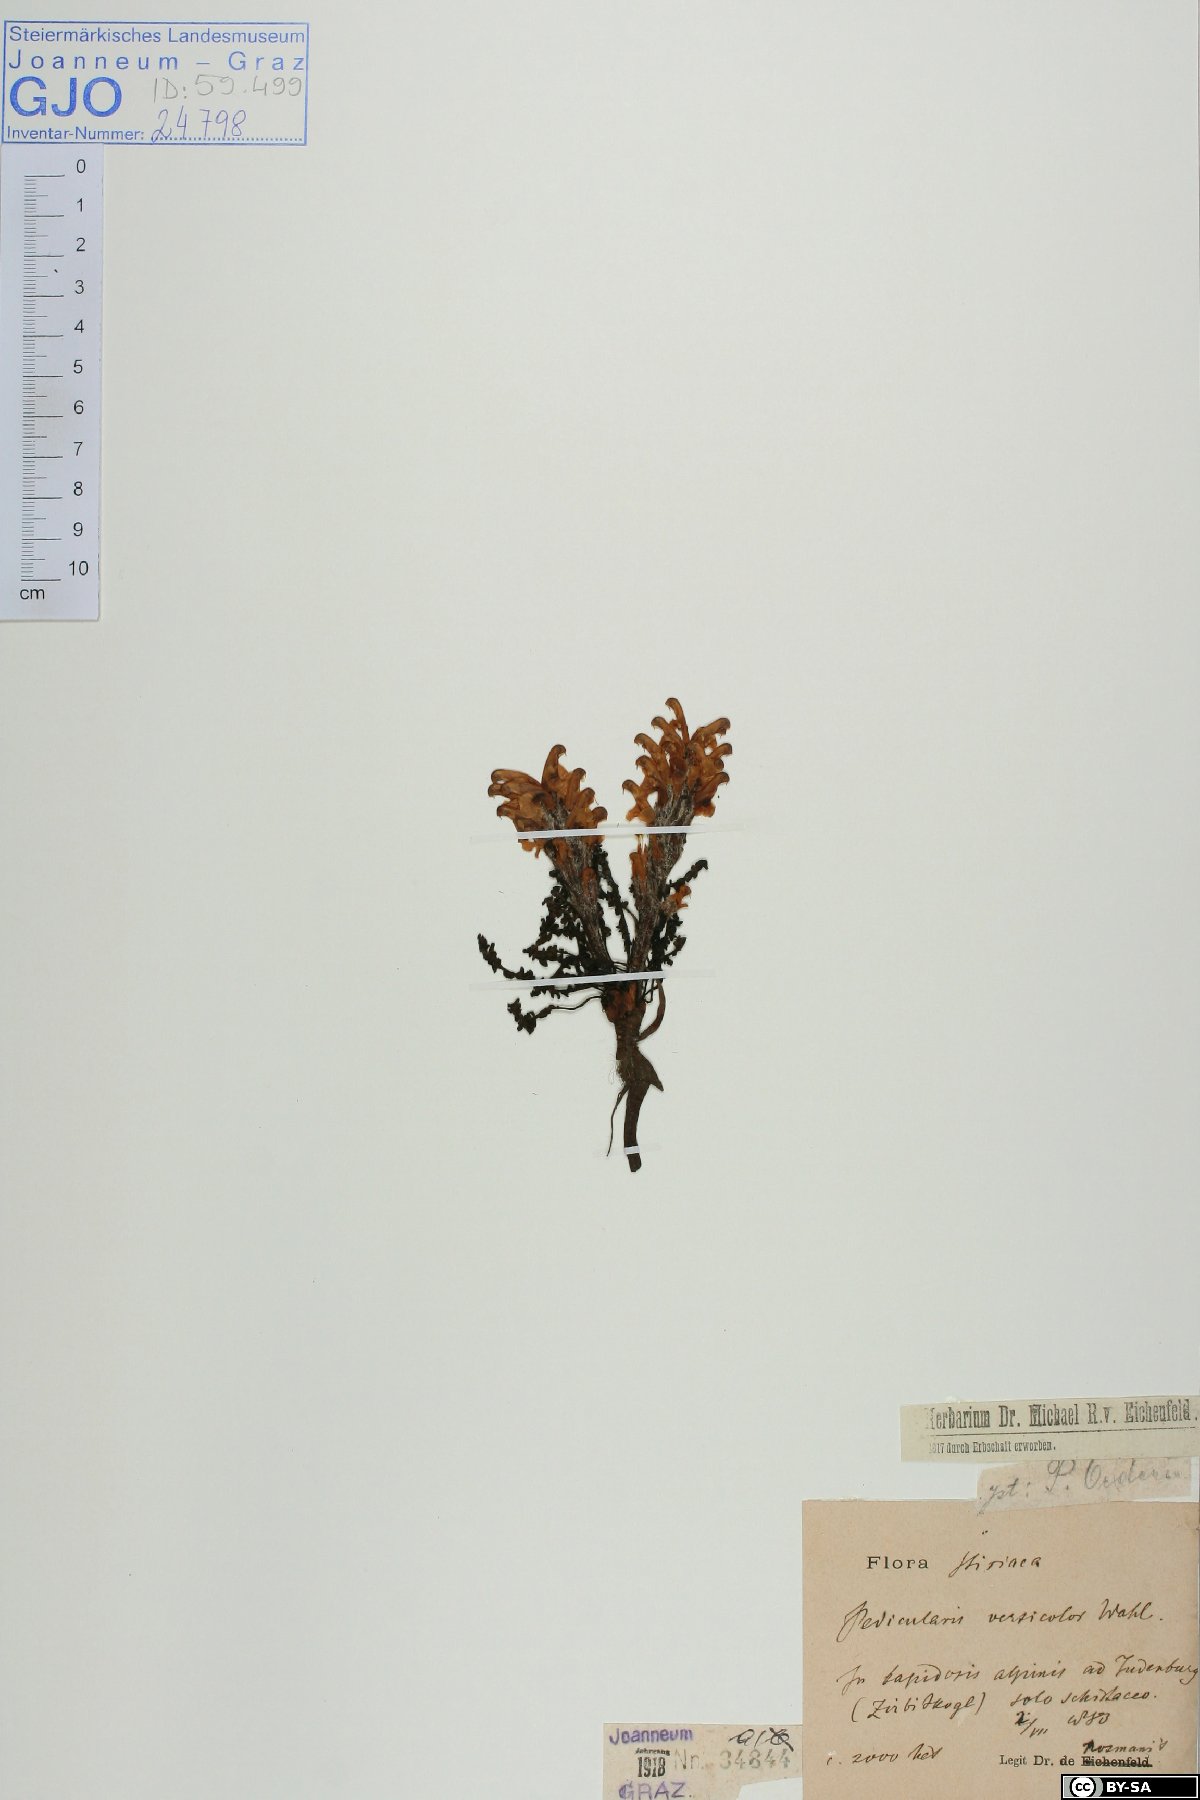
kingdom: Plantae
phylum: Tracheophyta
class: Magnoliopsida
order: Lamiales
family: Orobanchaceae
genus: Pedicularis
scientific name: Pedicularis oederi
